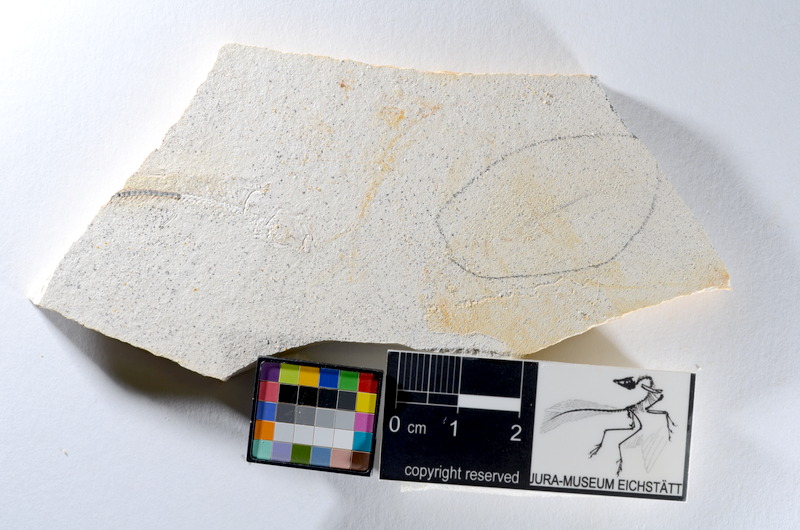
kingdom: Animalia
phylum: Chordata
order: Salmoniformes
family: Orthogonikleithridae
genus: Orthogonikleithrus
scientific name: Orthogonikleithrus hoelli
